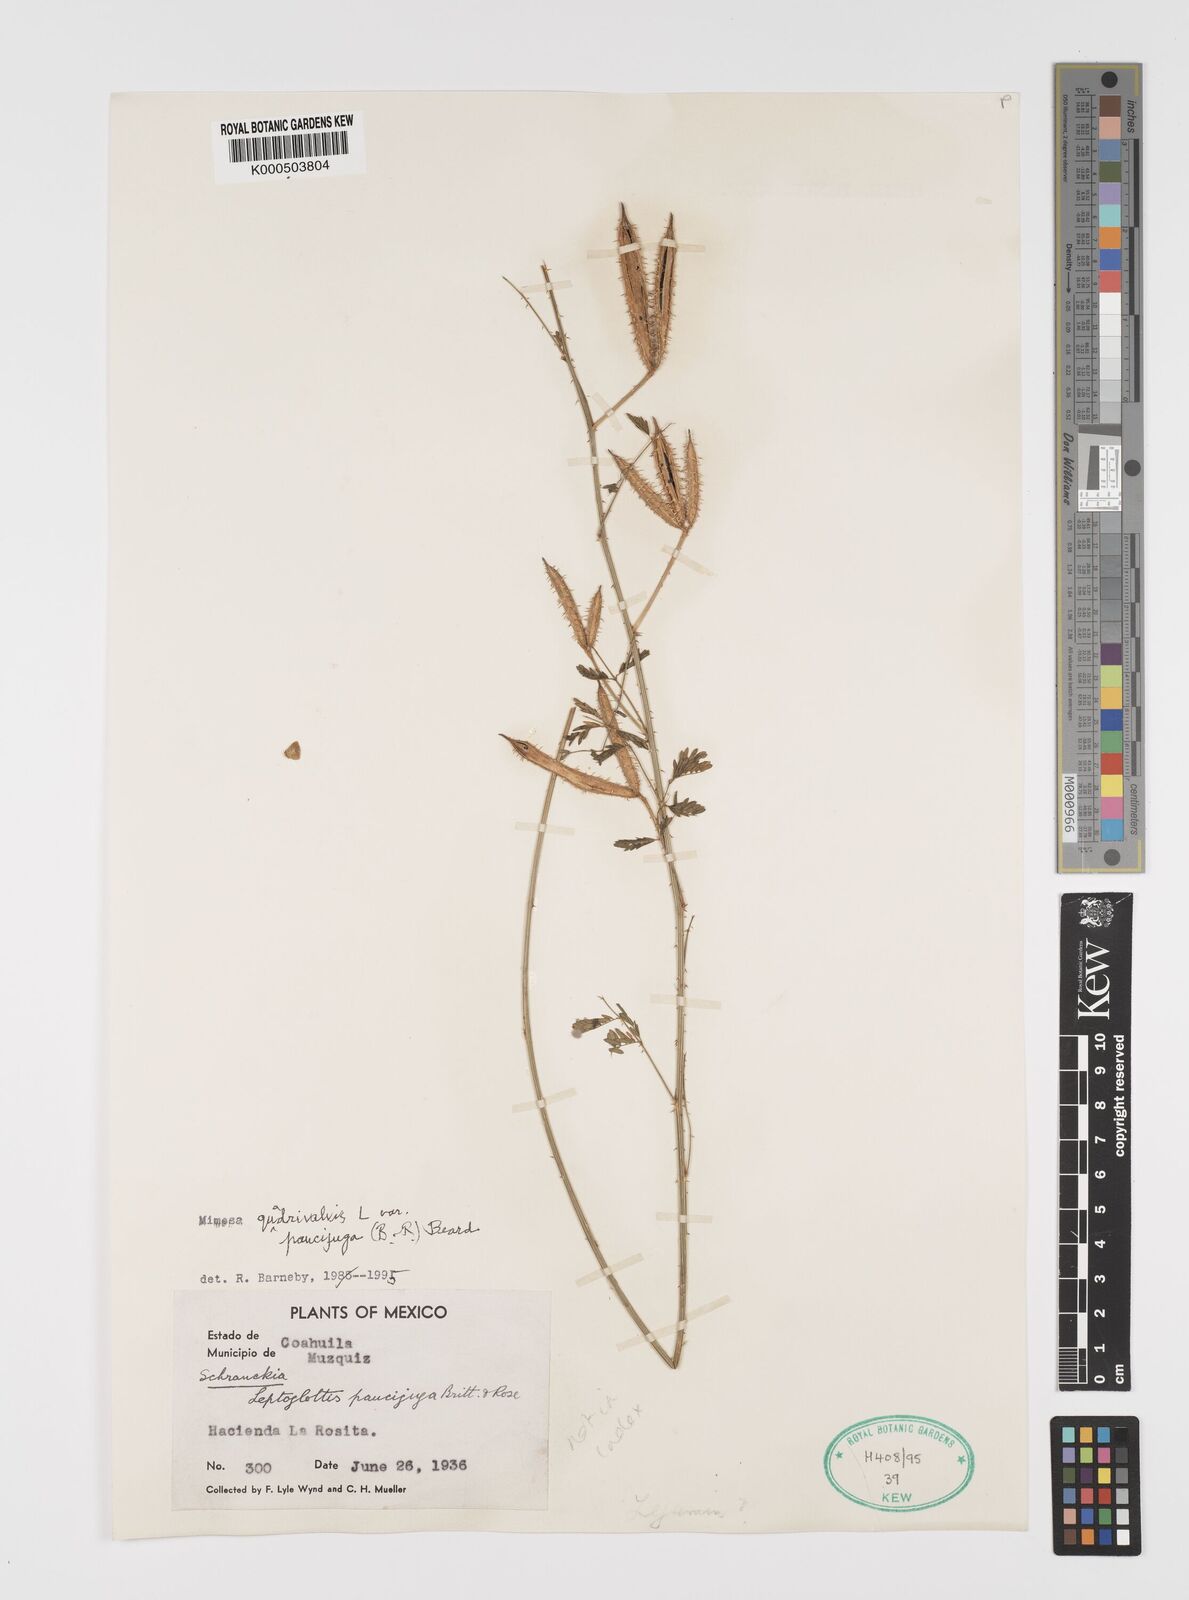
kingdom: Plantae
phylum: Tracheophyta
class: Magnoliopsida
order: Fabales
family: Fabaceae
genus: Mimosa
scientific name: Mimosa quadrivalvis
